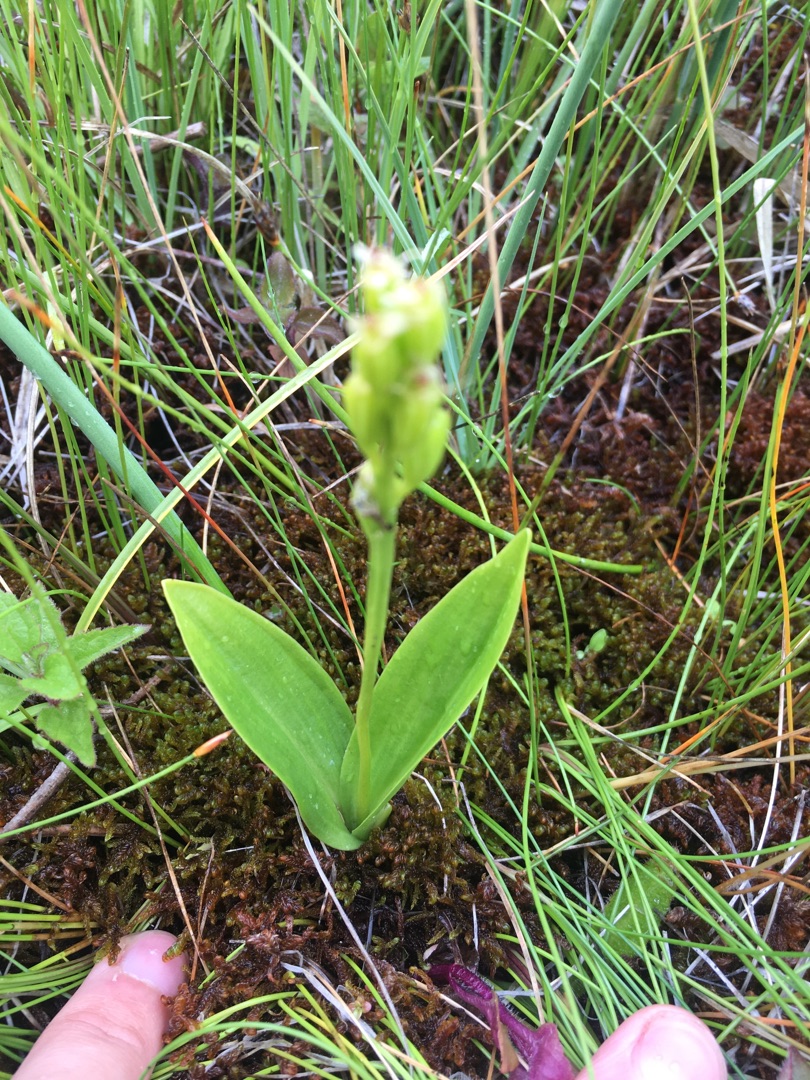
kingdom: Animalia
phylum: Arthropoda
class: Insecta
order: Coleoptera
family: Curculionidae
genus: Liparis
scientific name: Liparis loeselii
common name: Mygblomst
